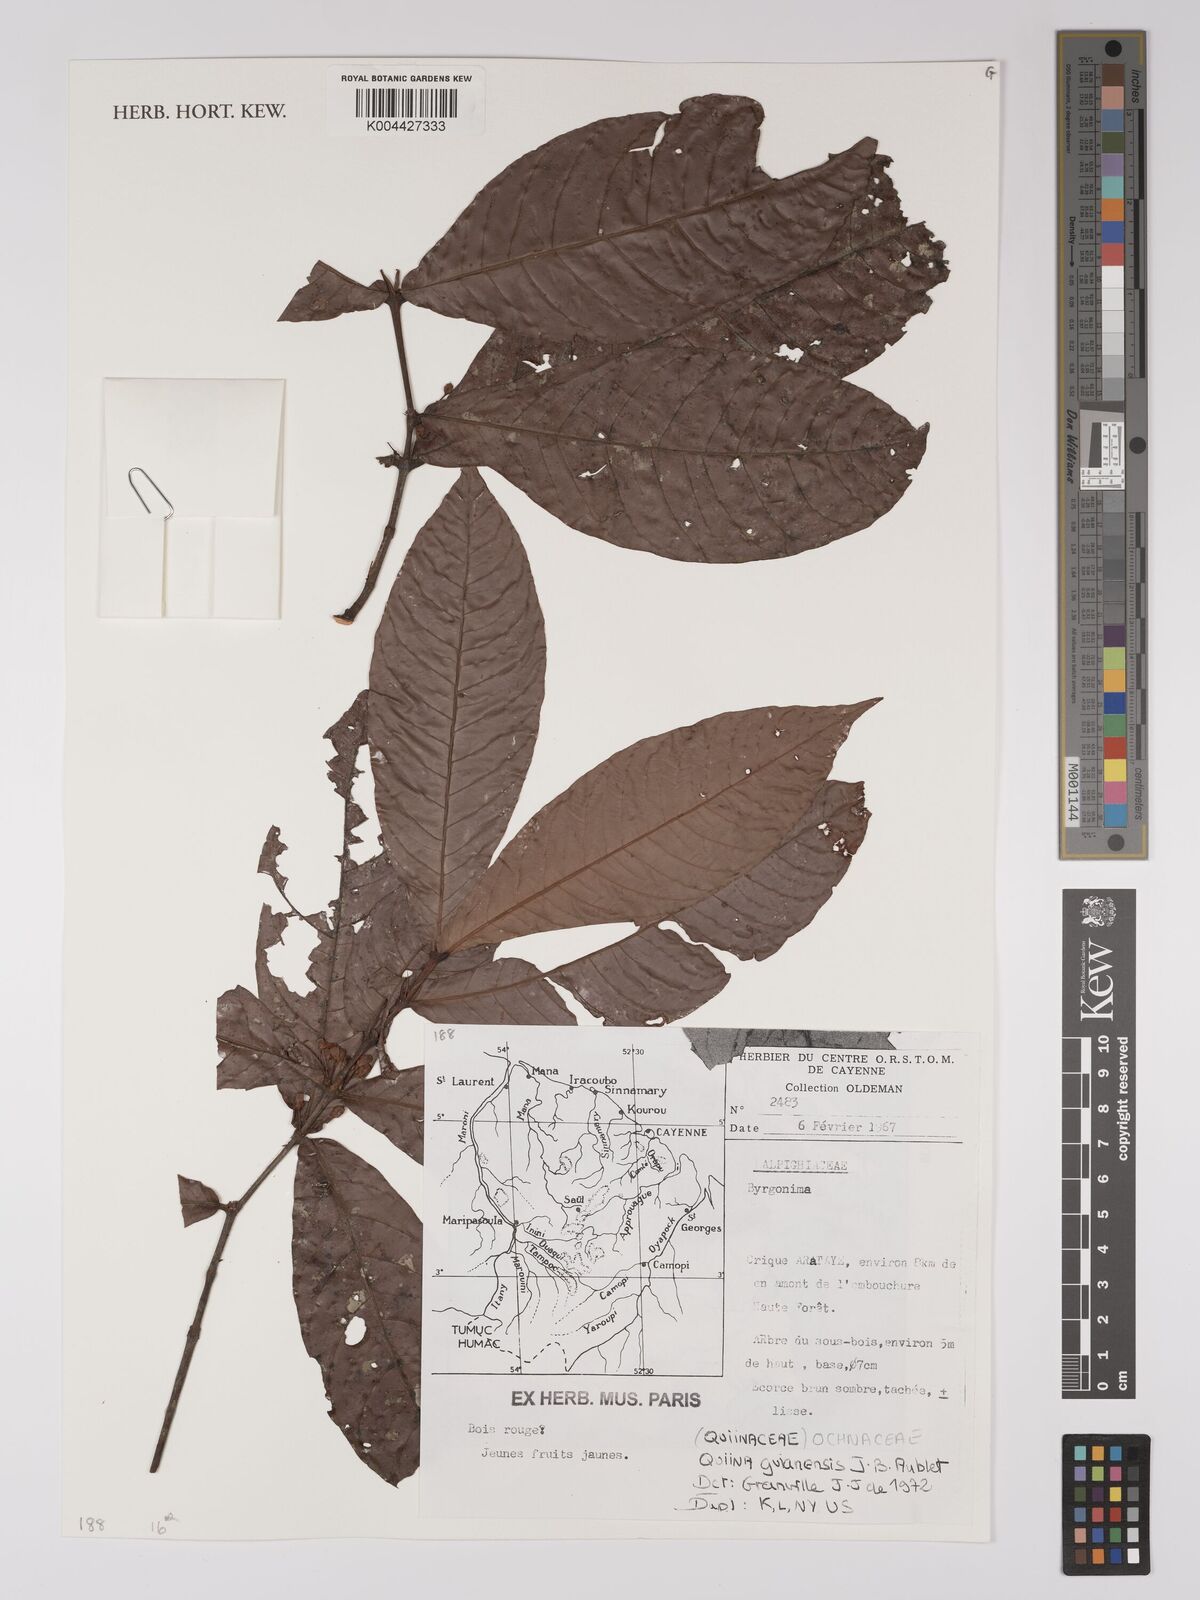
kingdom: Plantae
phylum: Tracheophyta
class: Magnoliopsida
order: Malpighiales
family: Quiinaceae
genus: Quiina
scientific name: Quiina guianensis
